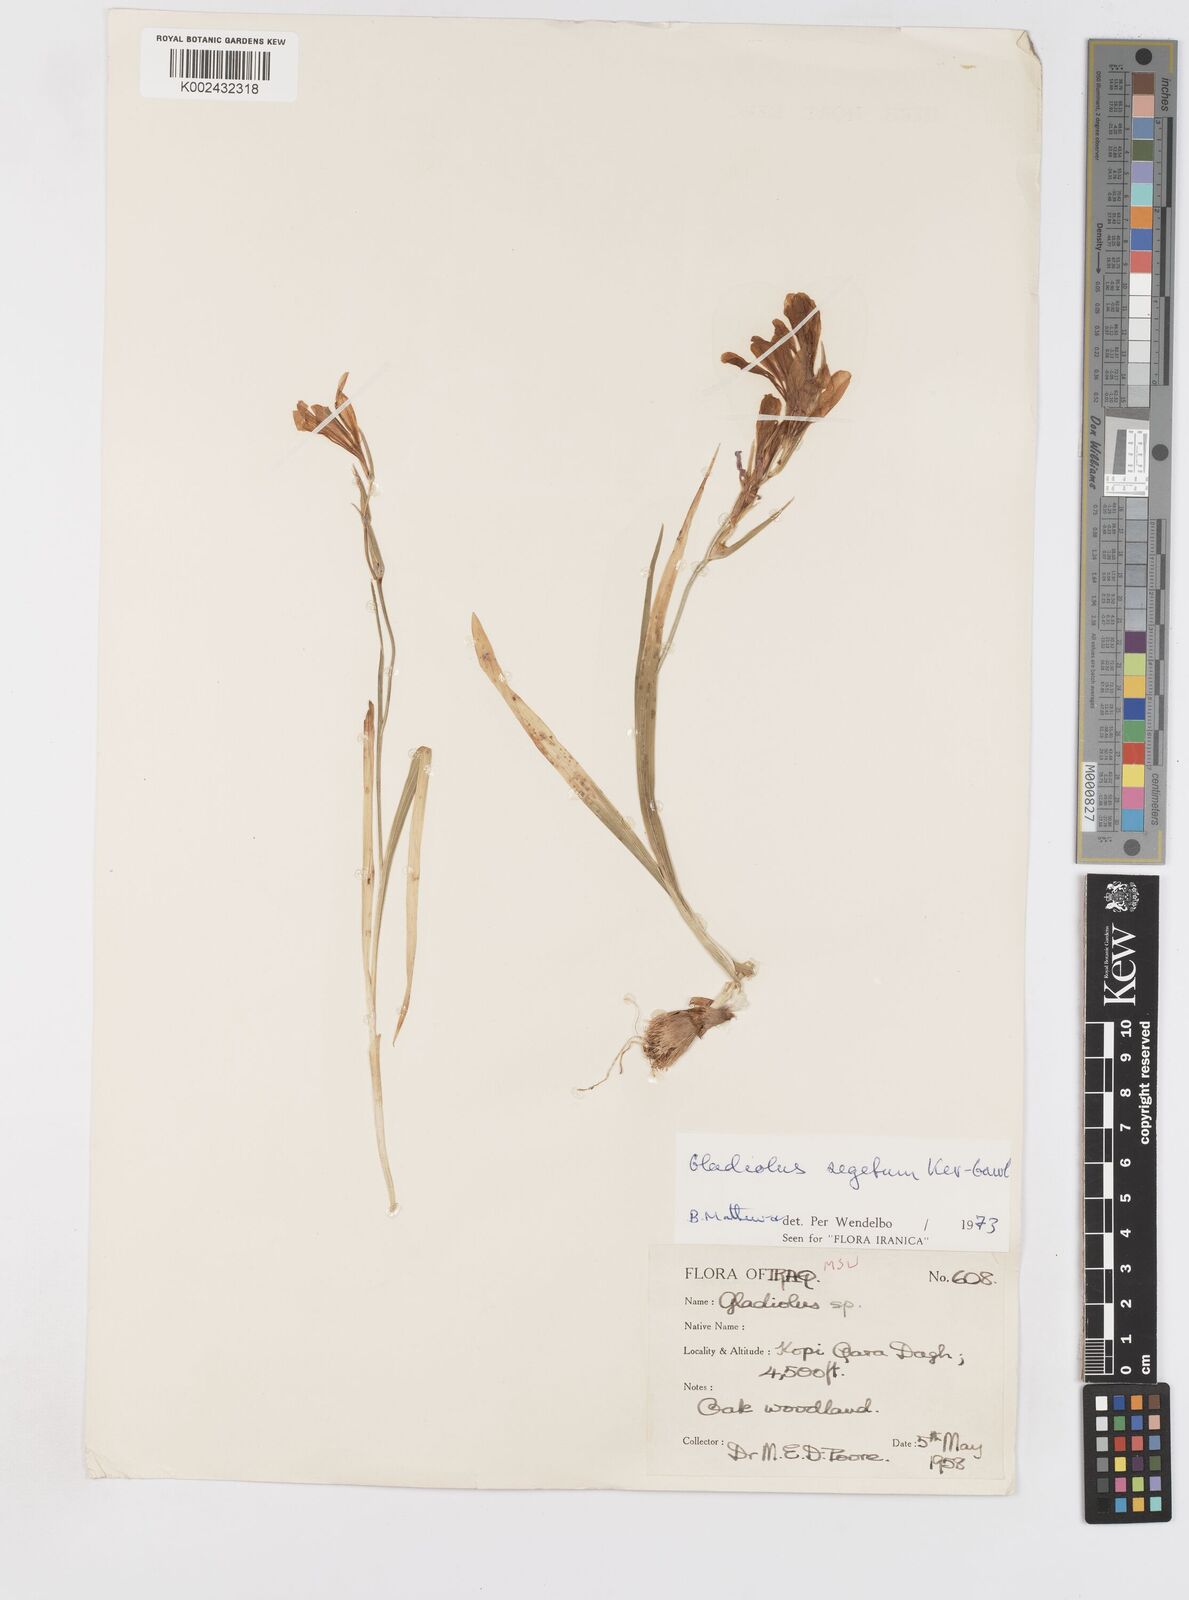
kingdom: Plantae
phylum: Tracheophyta
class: Liliopsida
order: Asparagales
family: Iridaceae
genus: Gladiolus
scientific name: Gladiolus italicus
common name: Field gladiolus
